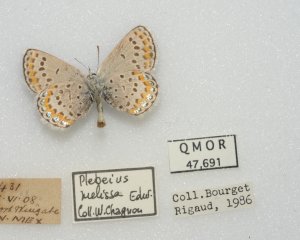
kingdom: Animalia
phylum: Arthropoda
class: Insecta
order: Lepidoptera
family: Lycaenidae
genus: Lycaeides
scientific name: Lycaeides melissa
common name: Melissa Blue
